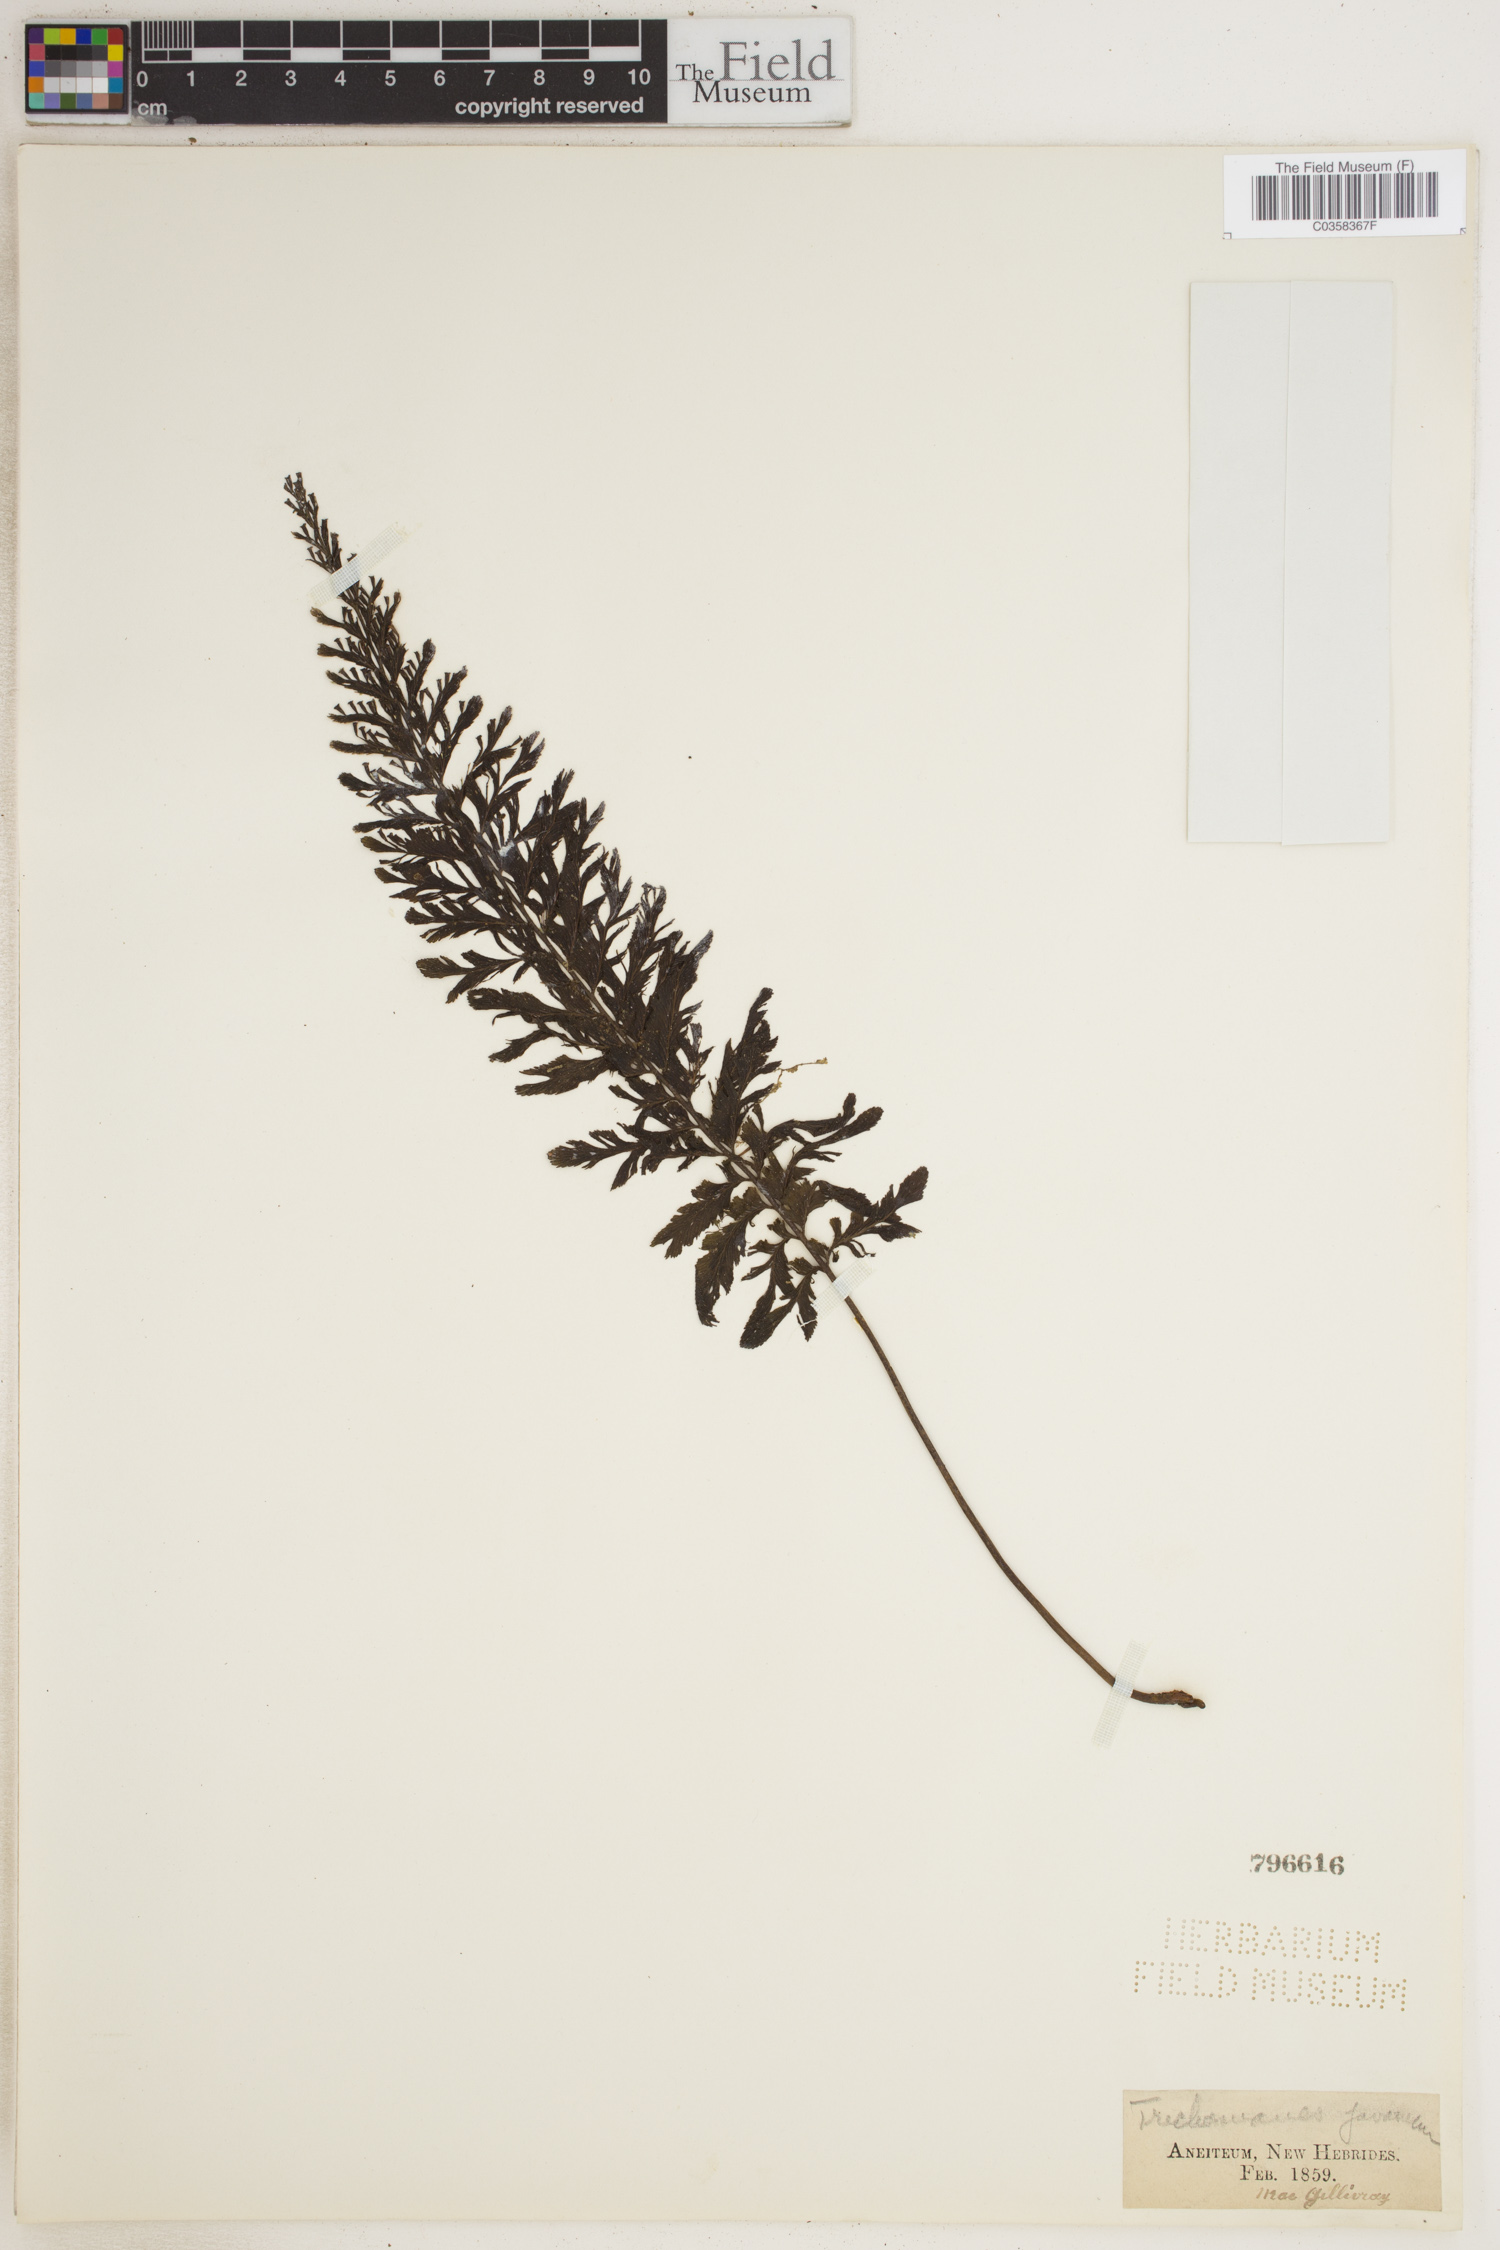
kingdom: Plantae
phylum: Tracheophyta
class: Polypodiopsida
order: Hymenophyllales
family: Hymenophyllaceae
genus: Cephalomanes
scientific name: Cephalomanes javanicum
